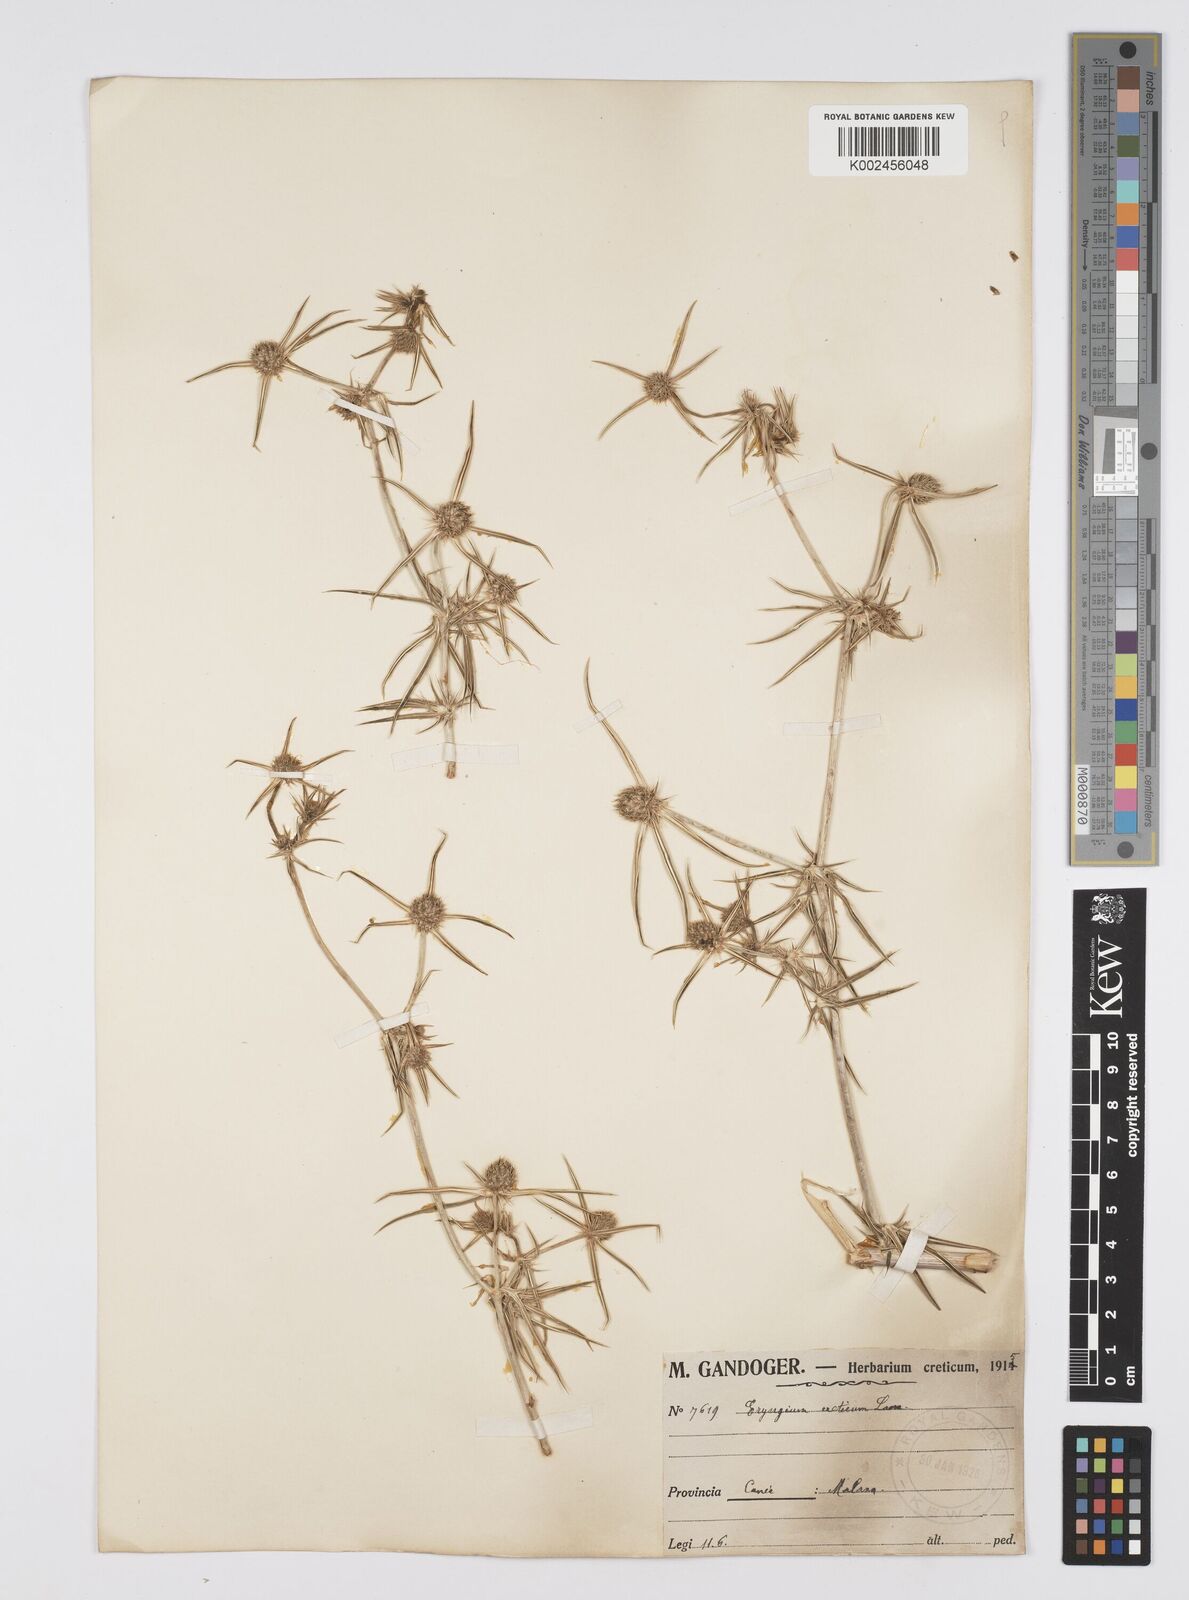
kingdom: Plantae
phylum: Tracheophyta
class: Magnoliopsida
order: Apiales
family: Apiaceae
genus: Eryngium
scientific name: Eryngium creticum
